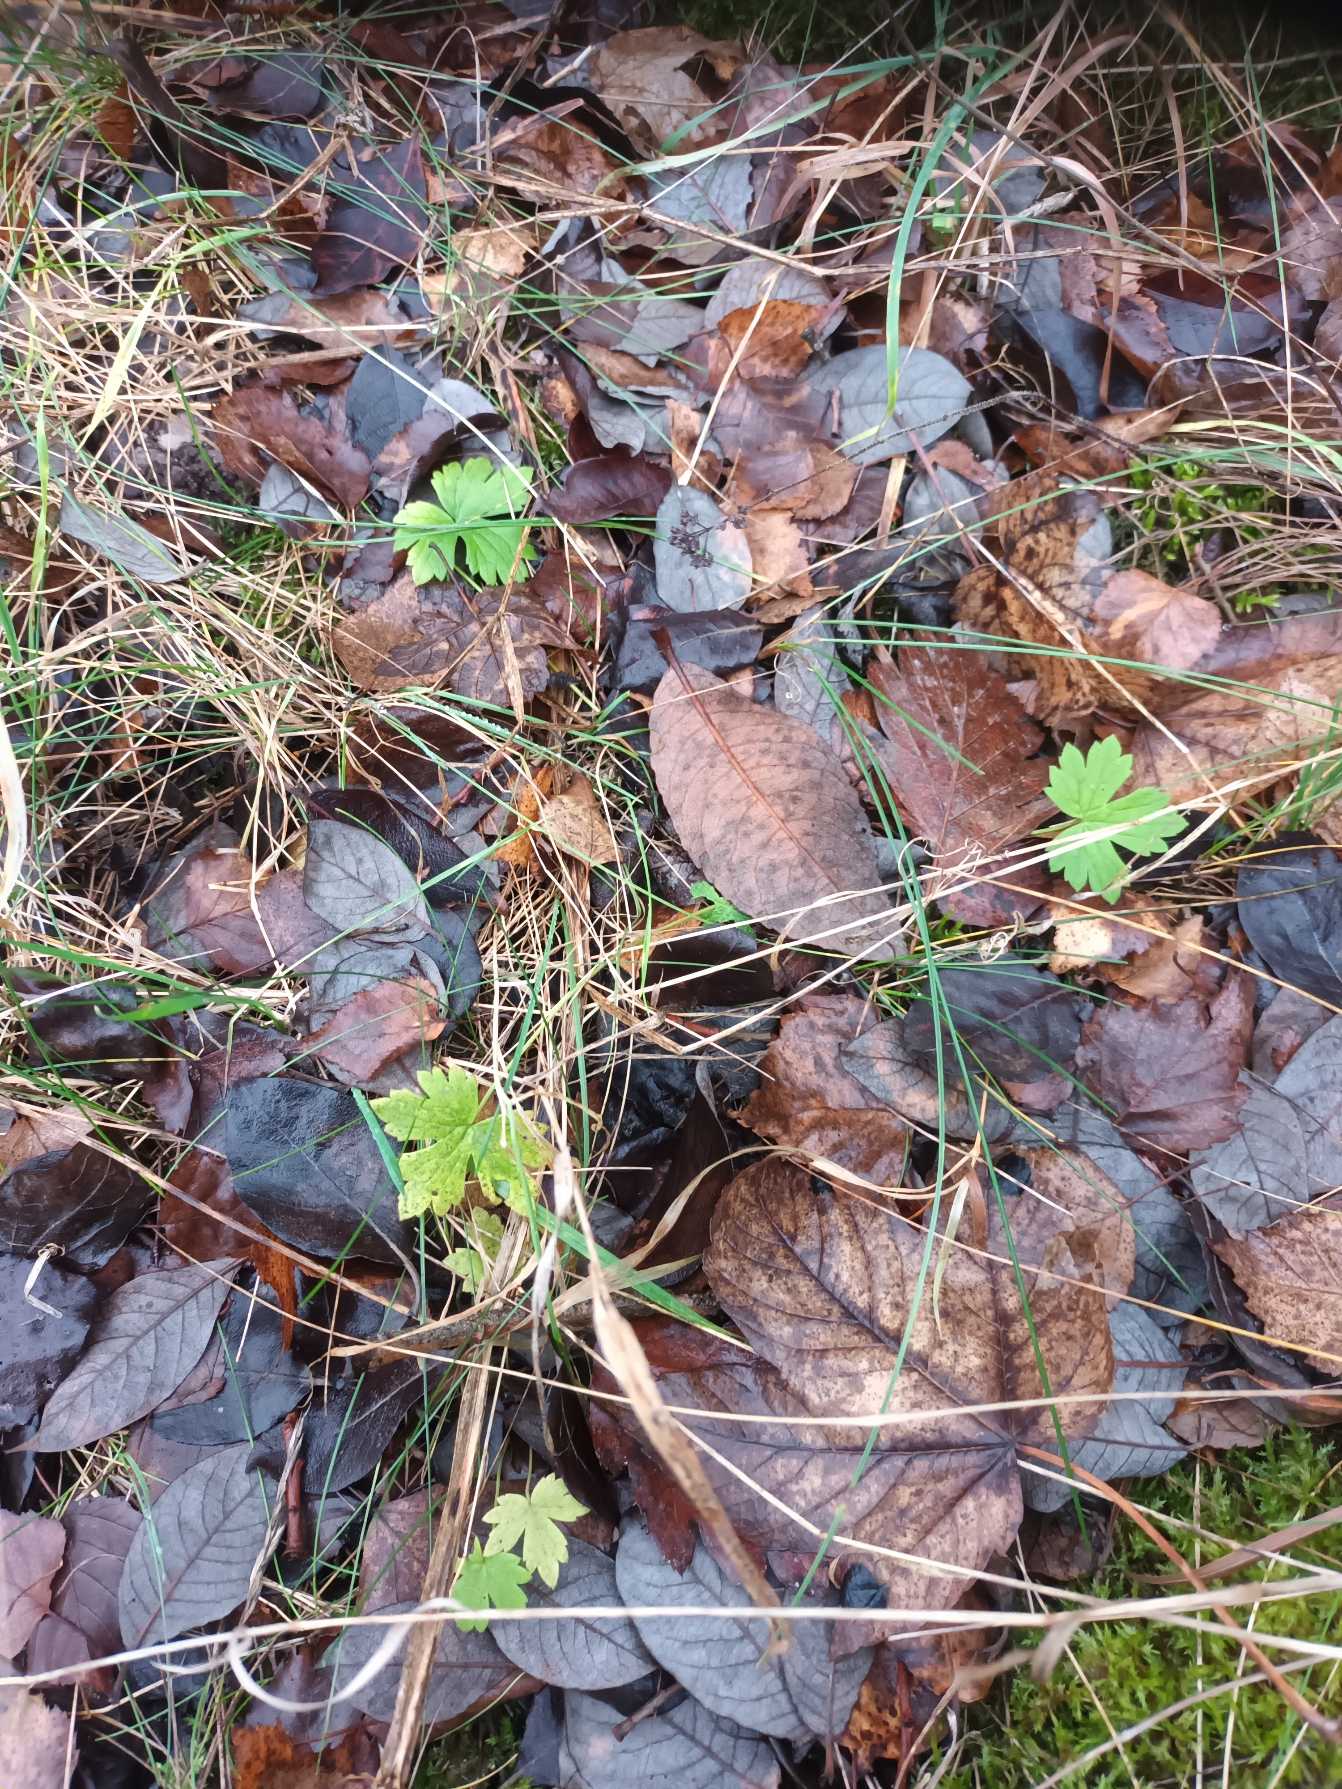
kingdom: Plantae
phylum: Tracheophyta
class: Magnoliopsida
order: Ranunculales
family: Ranunculaceae
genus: Ranunculus
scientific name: Ranunculus acris
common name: Bidende ranunkel
